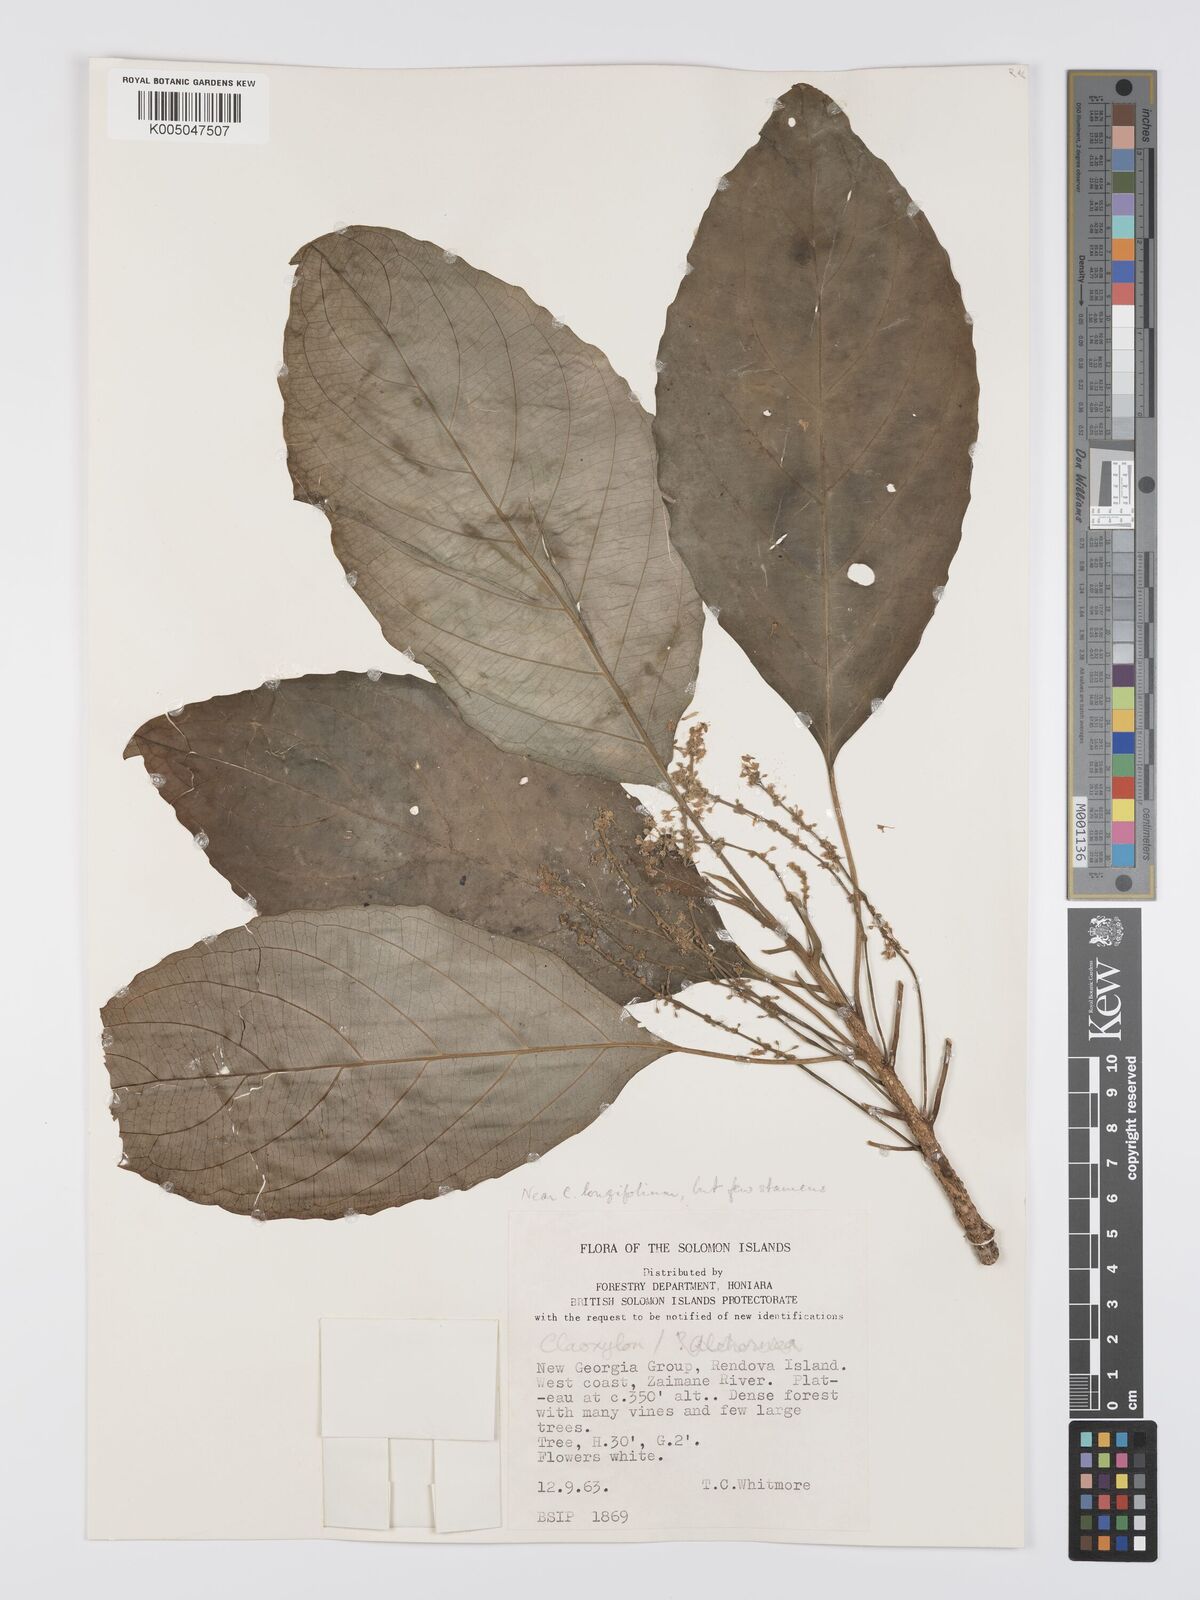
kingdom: Plantae
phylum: Tracheophyta
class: Magnoliopsida
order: Malpighiales
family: Euphorbiaceae
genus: Claoxylon
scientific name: Claoxylon carolinianum
